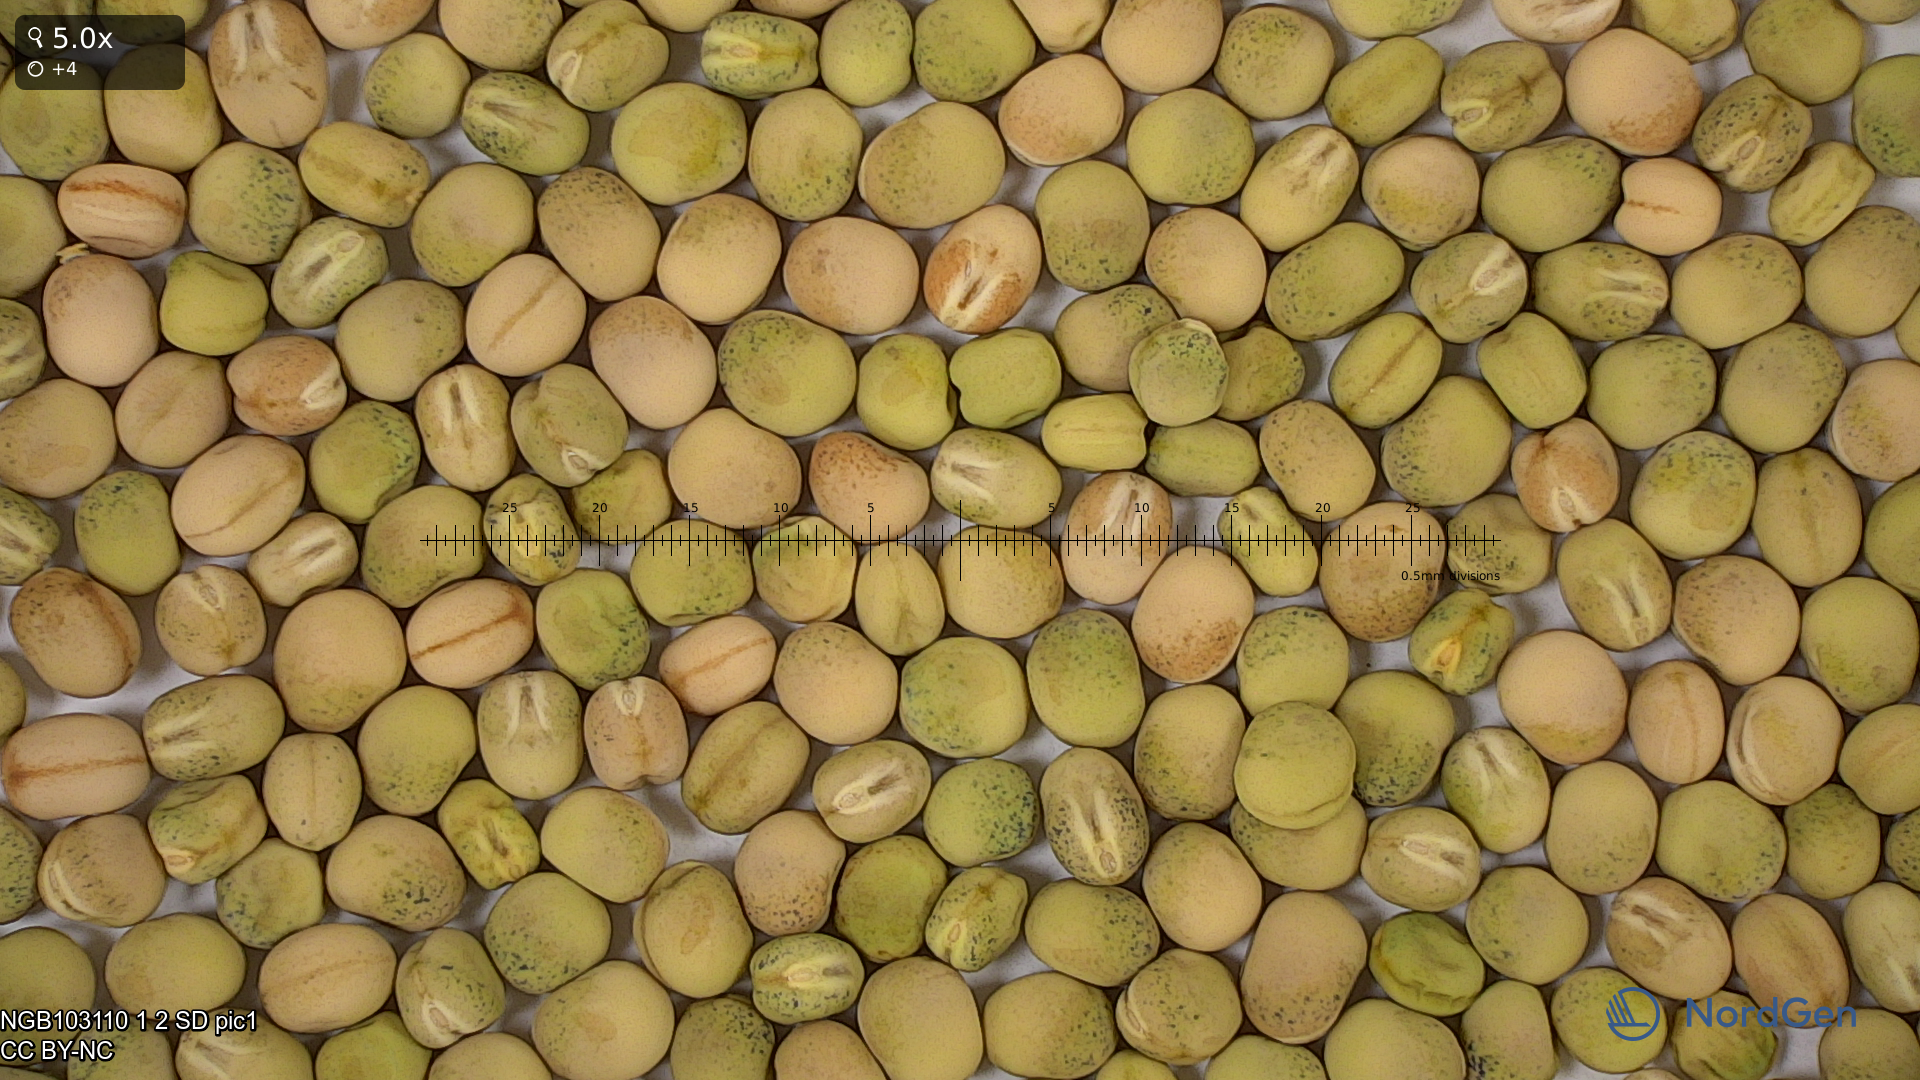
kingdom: Plantae
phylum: Tracheophyta
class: Magnoliopsida
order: Fabales
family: Fabaceae
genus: Lathyrus
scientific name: Lathyrus oleraceus
